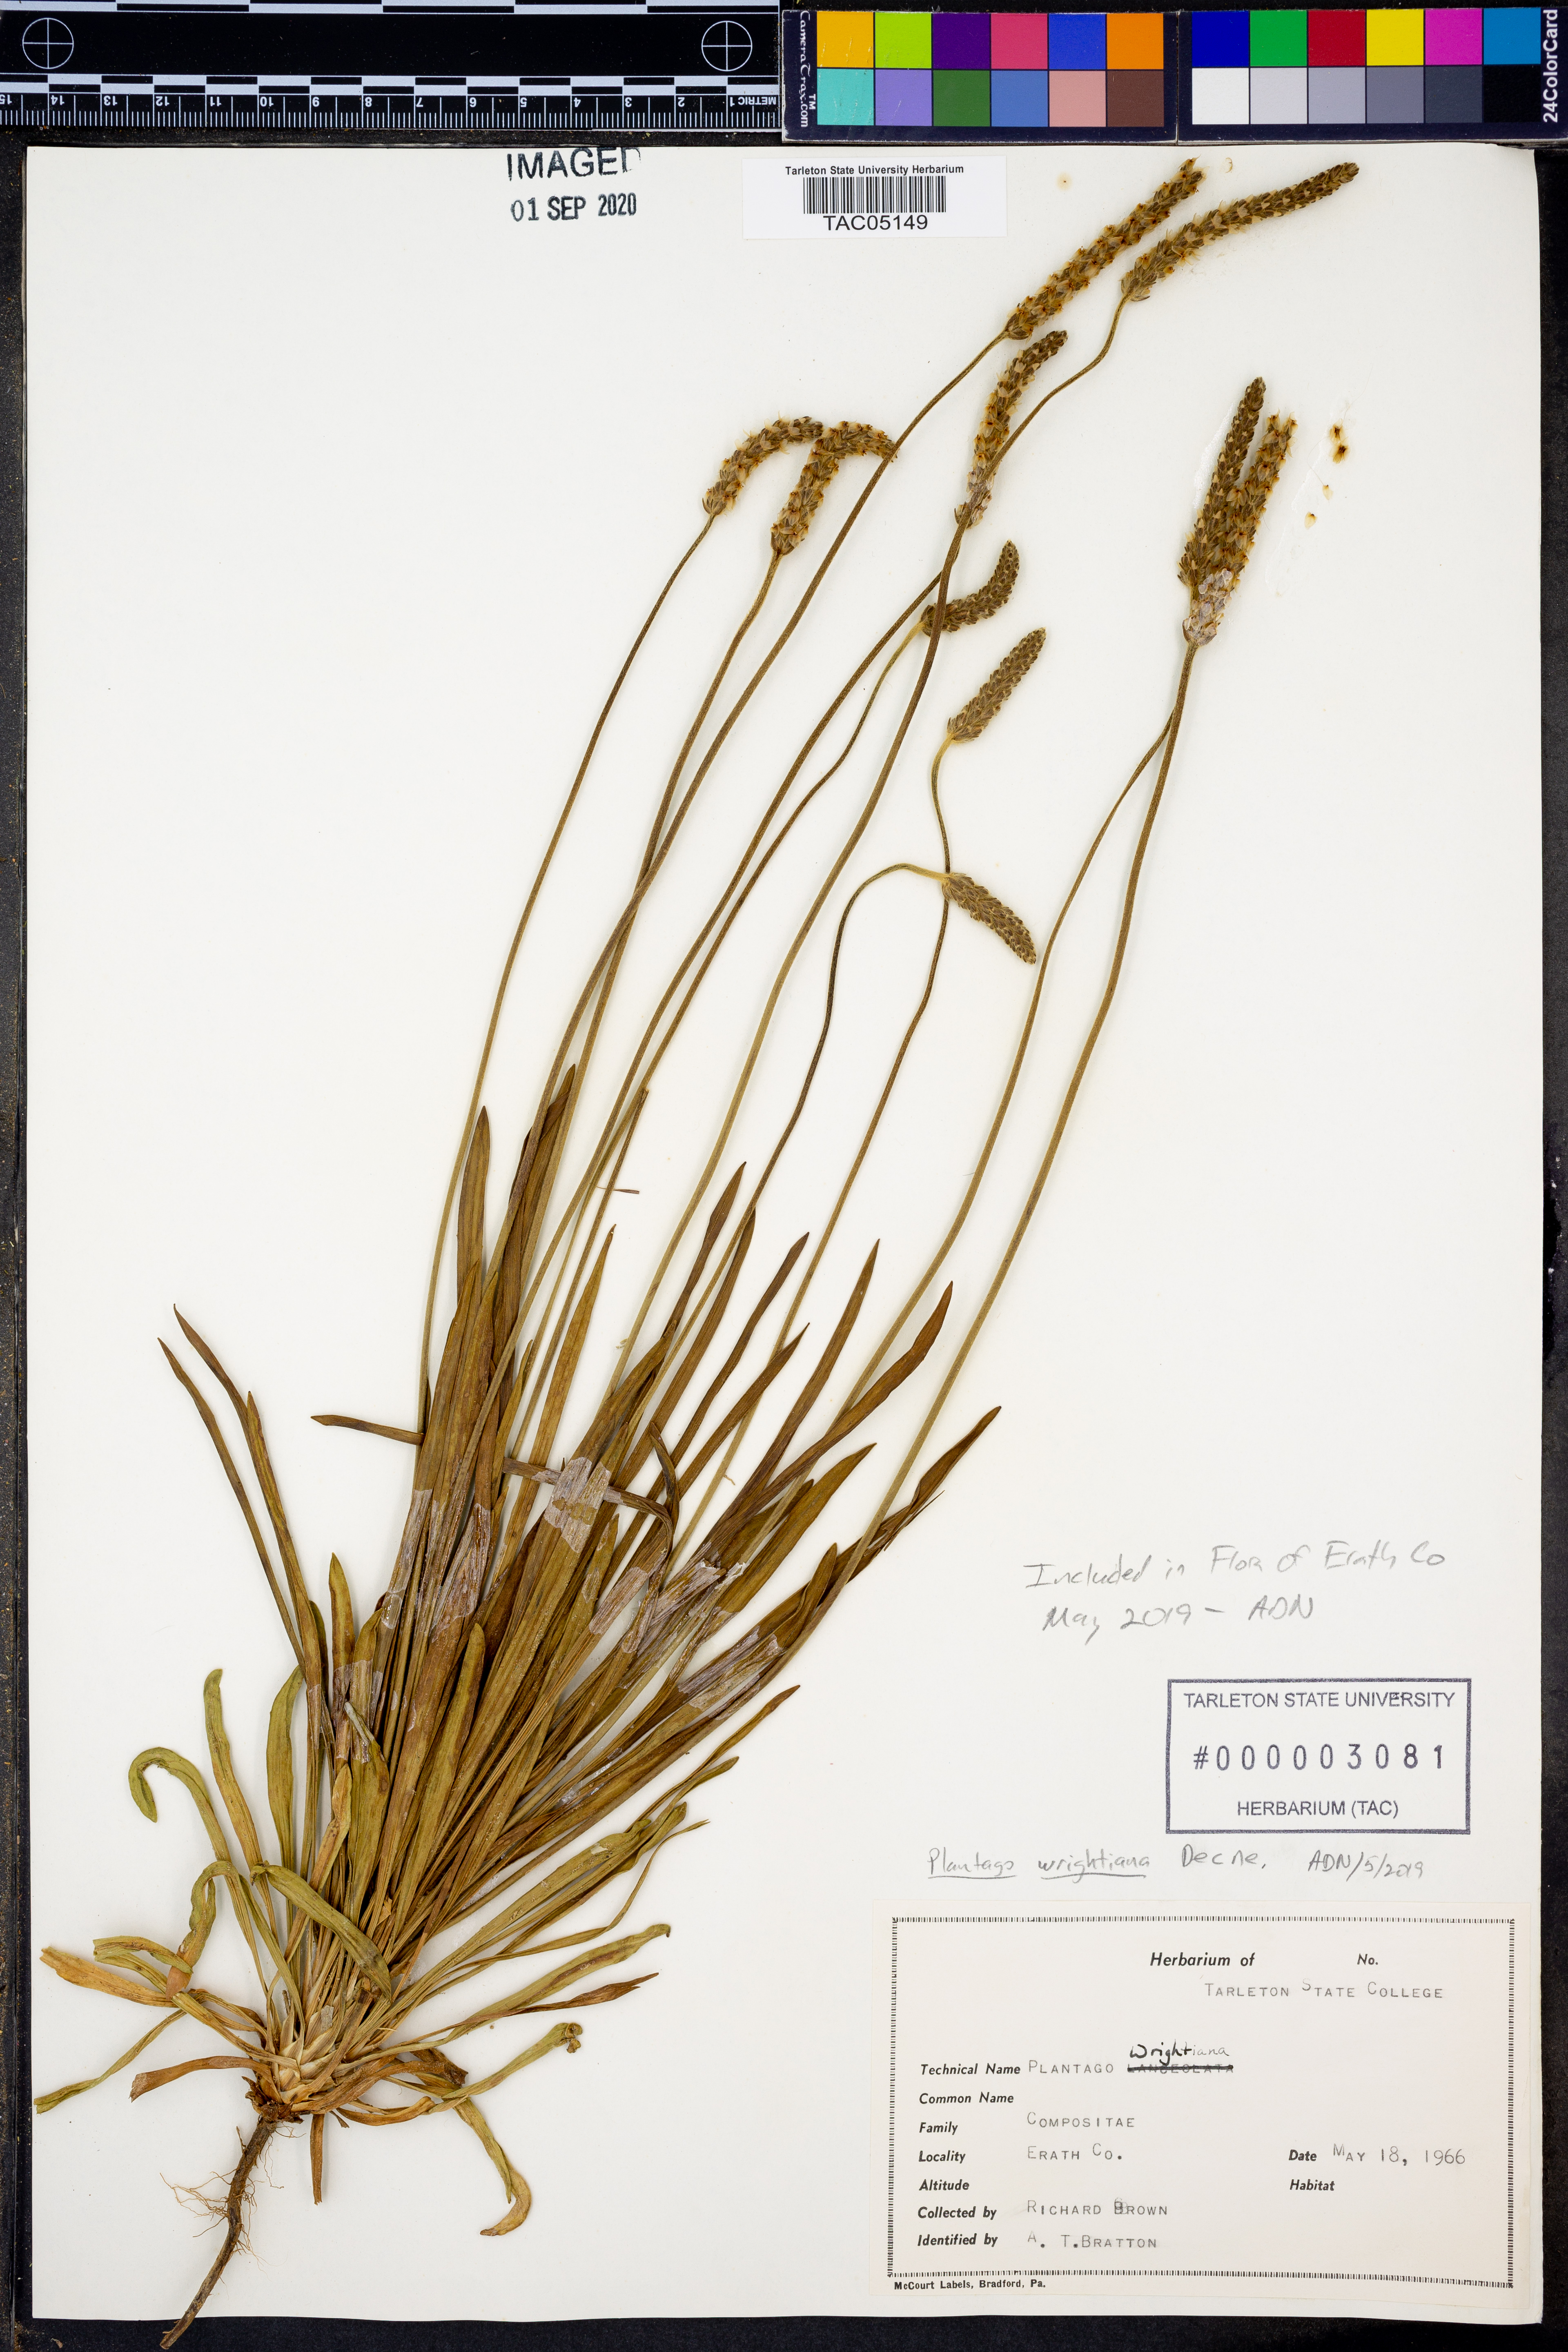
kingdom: Plantae
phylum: Tracheophyta
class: Magnoliopsida
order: Lamiales
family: Plantaginaceae
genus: Plantago
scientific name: Plantago wrightiana
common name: Wright's plantain
